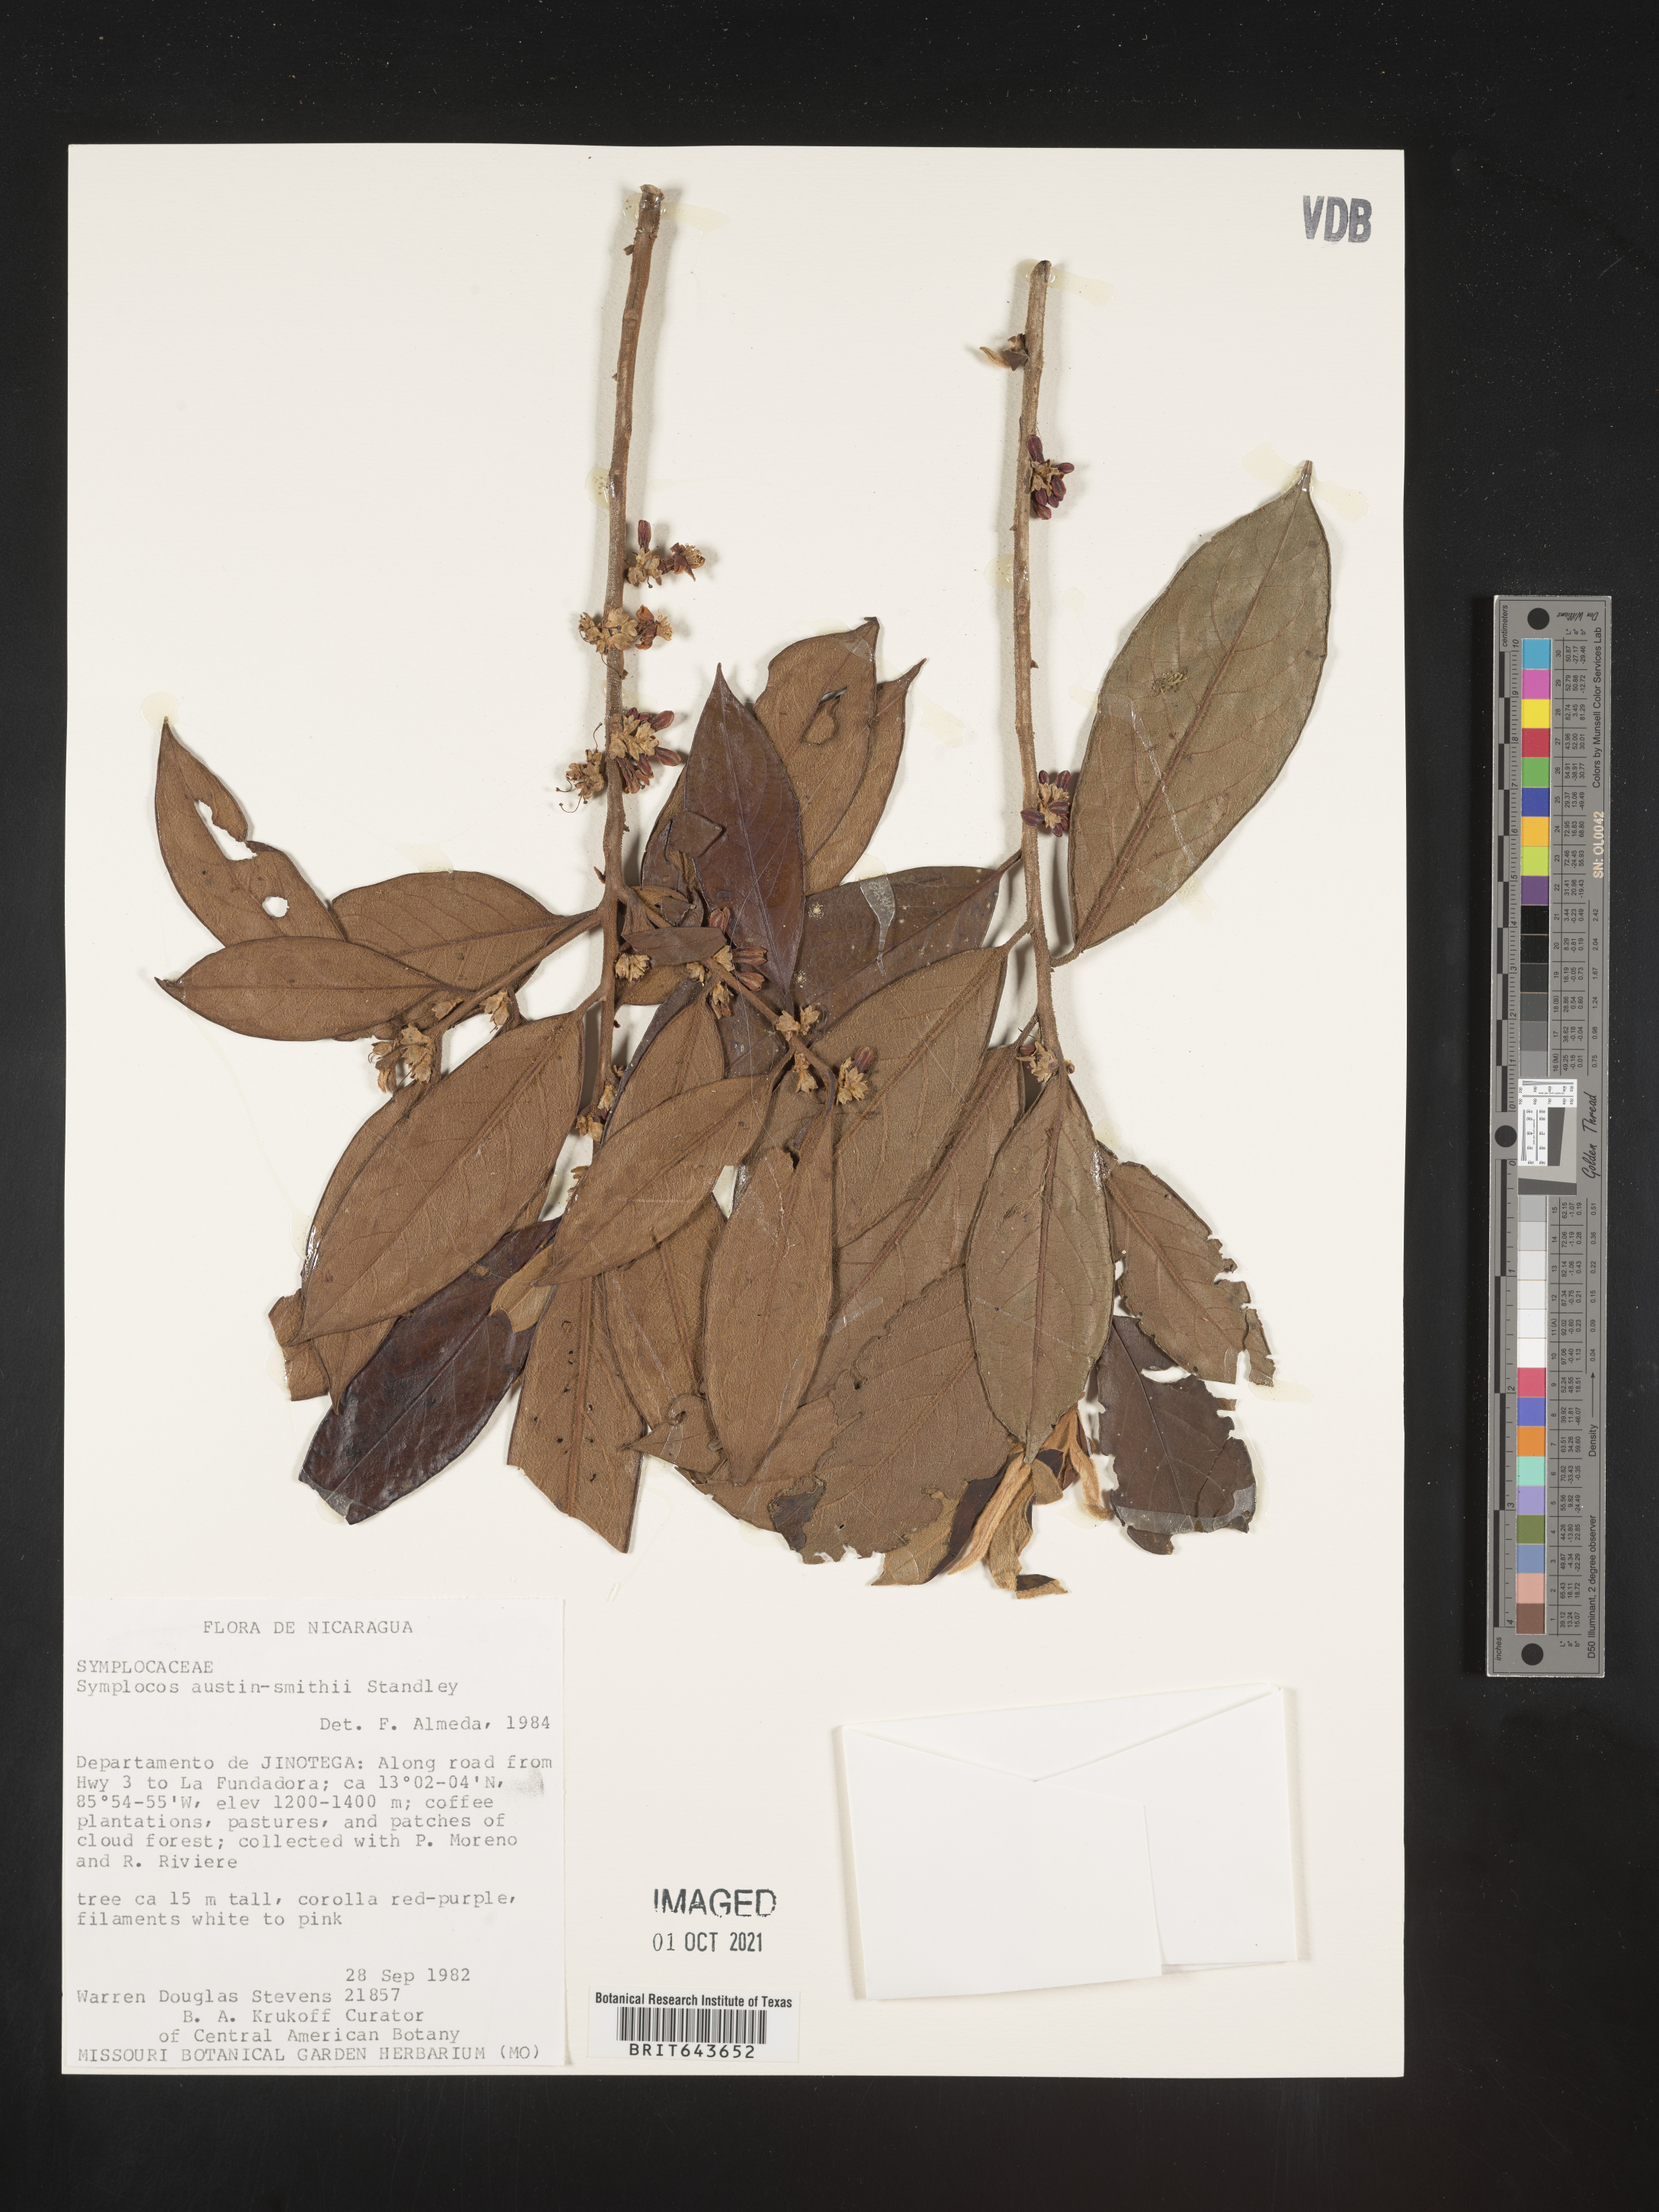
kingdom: Plantae
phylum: Tracheophyta
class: Magnoliopsida
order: Ericales
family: Symplocaceae
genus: Symplocos
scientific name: Symplocos
